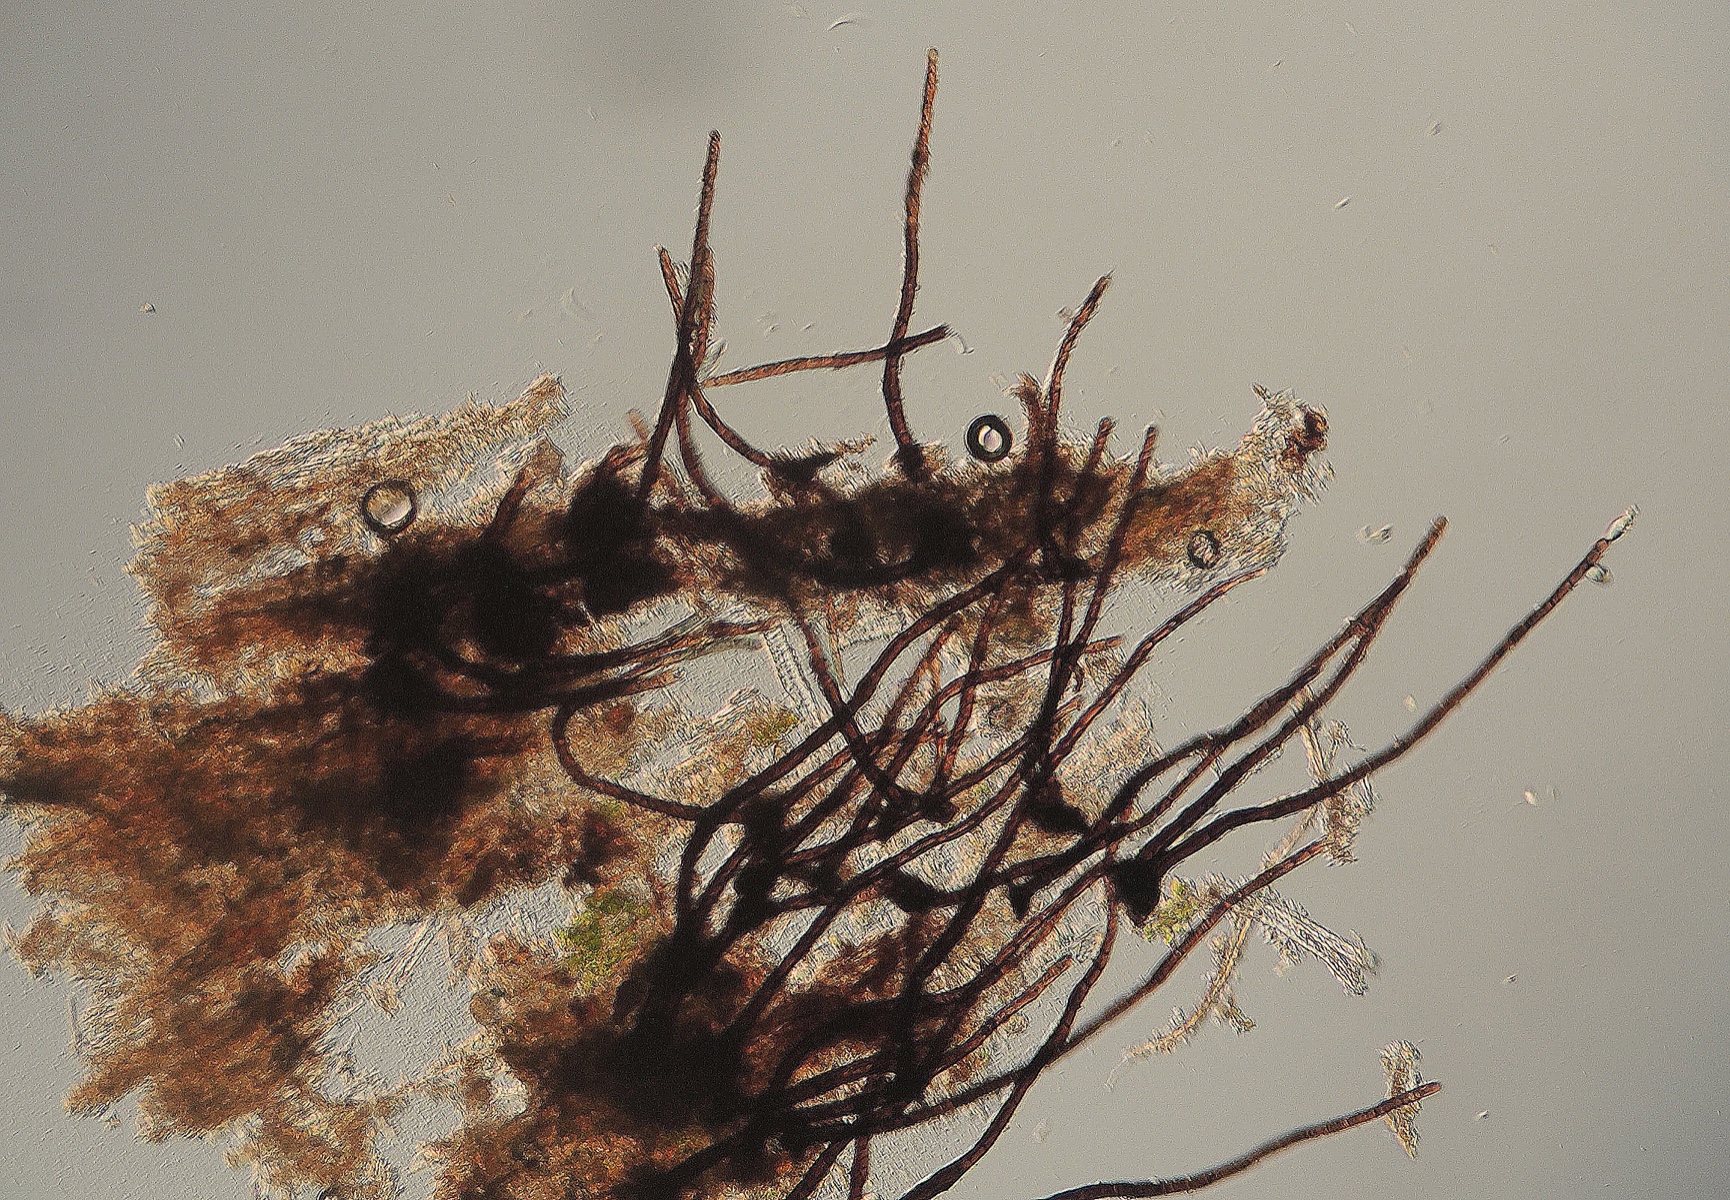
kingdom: Fungi
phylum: Ascomycota
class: Dothideomycetes
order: Pleosporales
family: Massarinaceae
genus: Helminthosporium
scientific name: Helminthosporium velutinum
